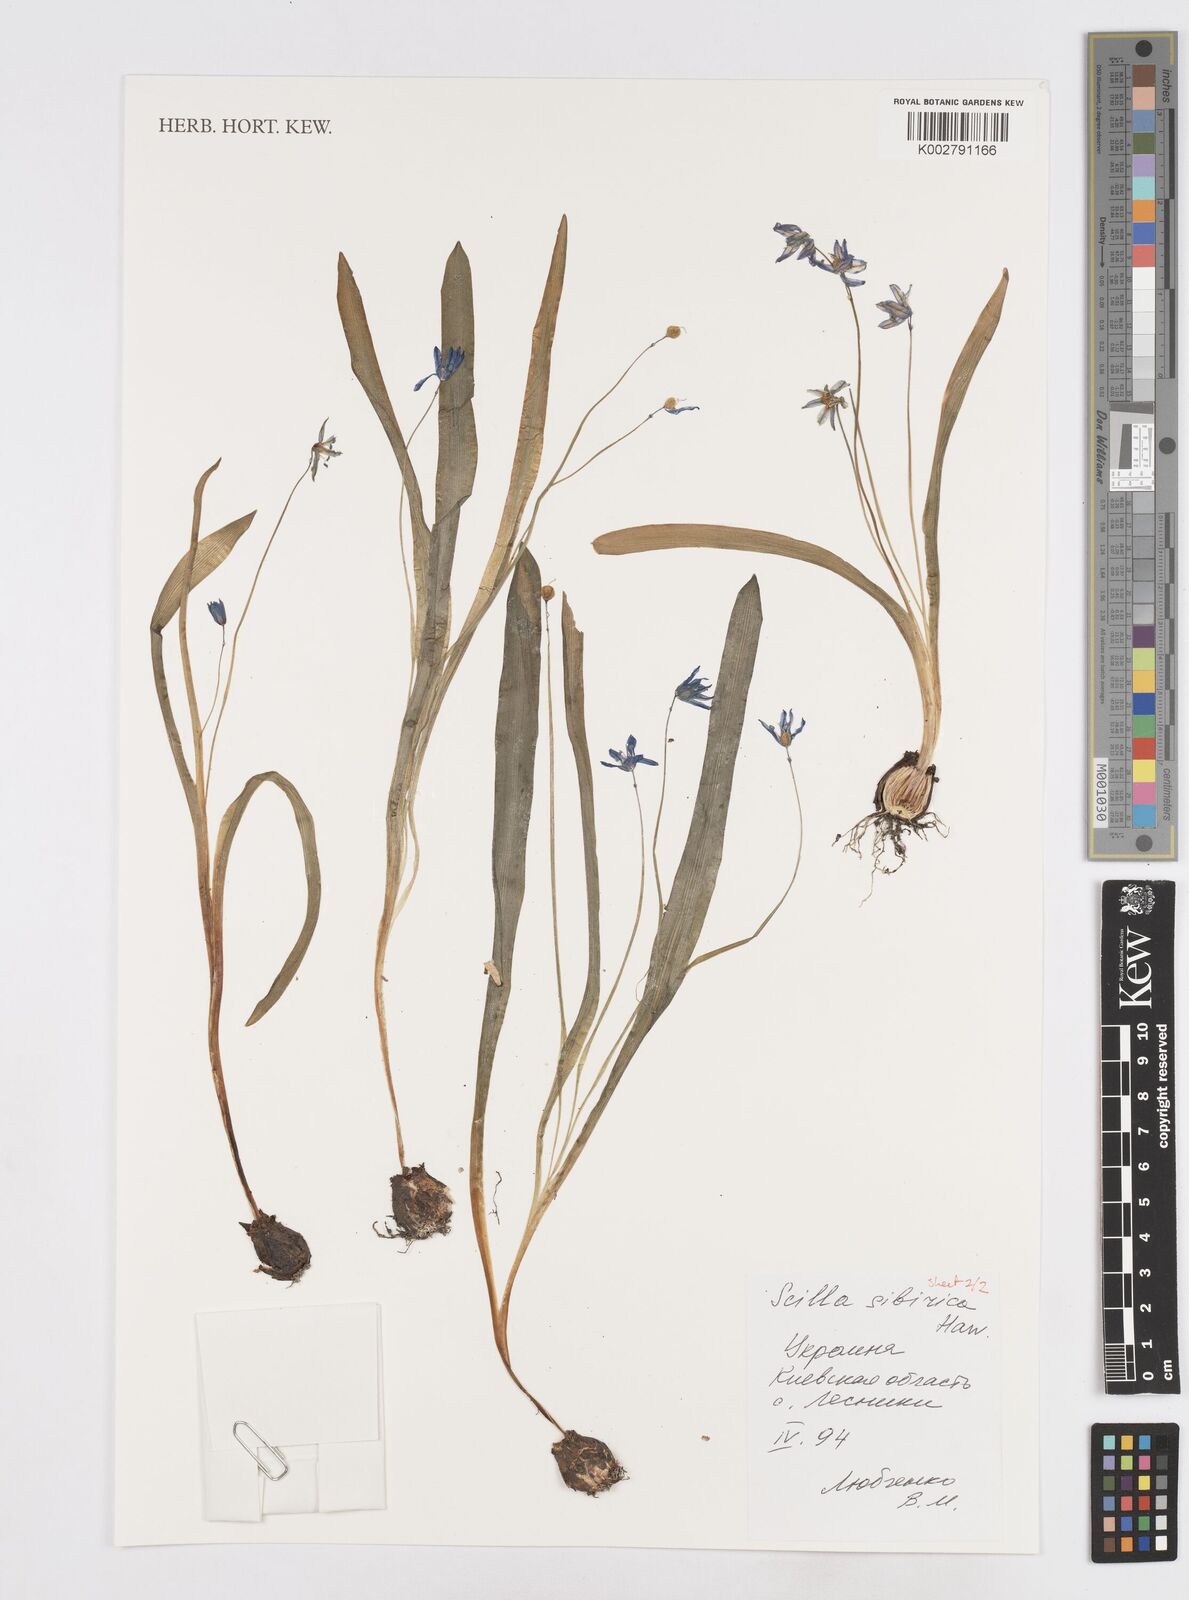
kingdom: Plantae
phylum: Tracheophyta
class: Liliopsida
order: Asparagales
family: Asparagaceae
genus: Scilla
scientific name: Scilla siberica
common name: Siberian squill
